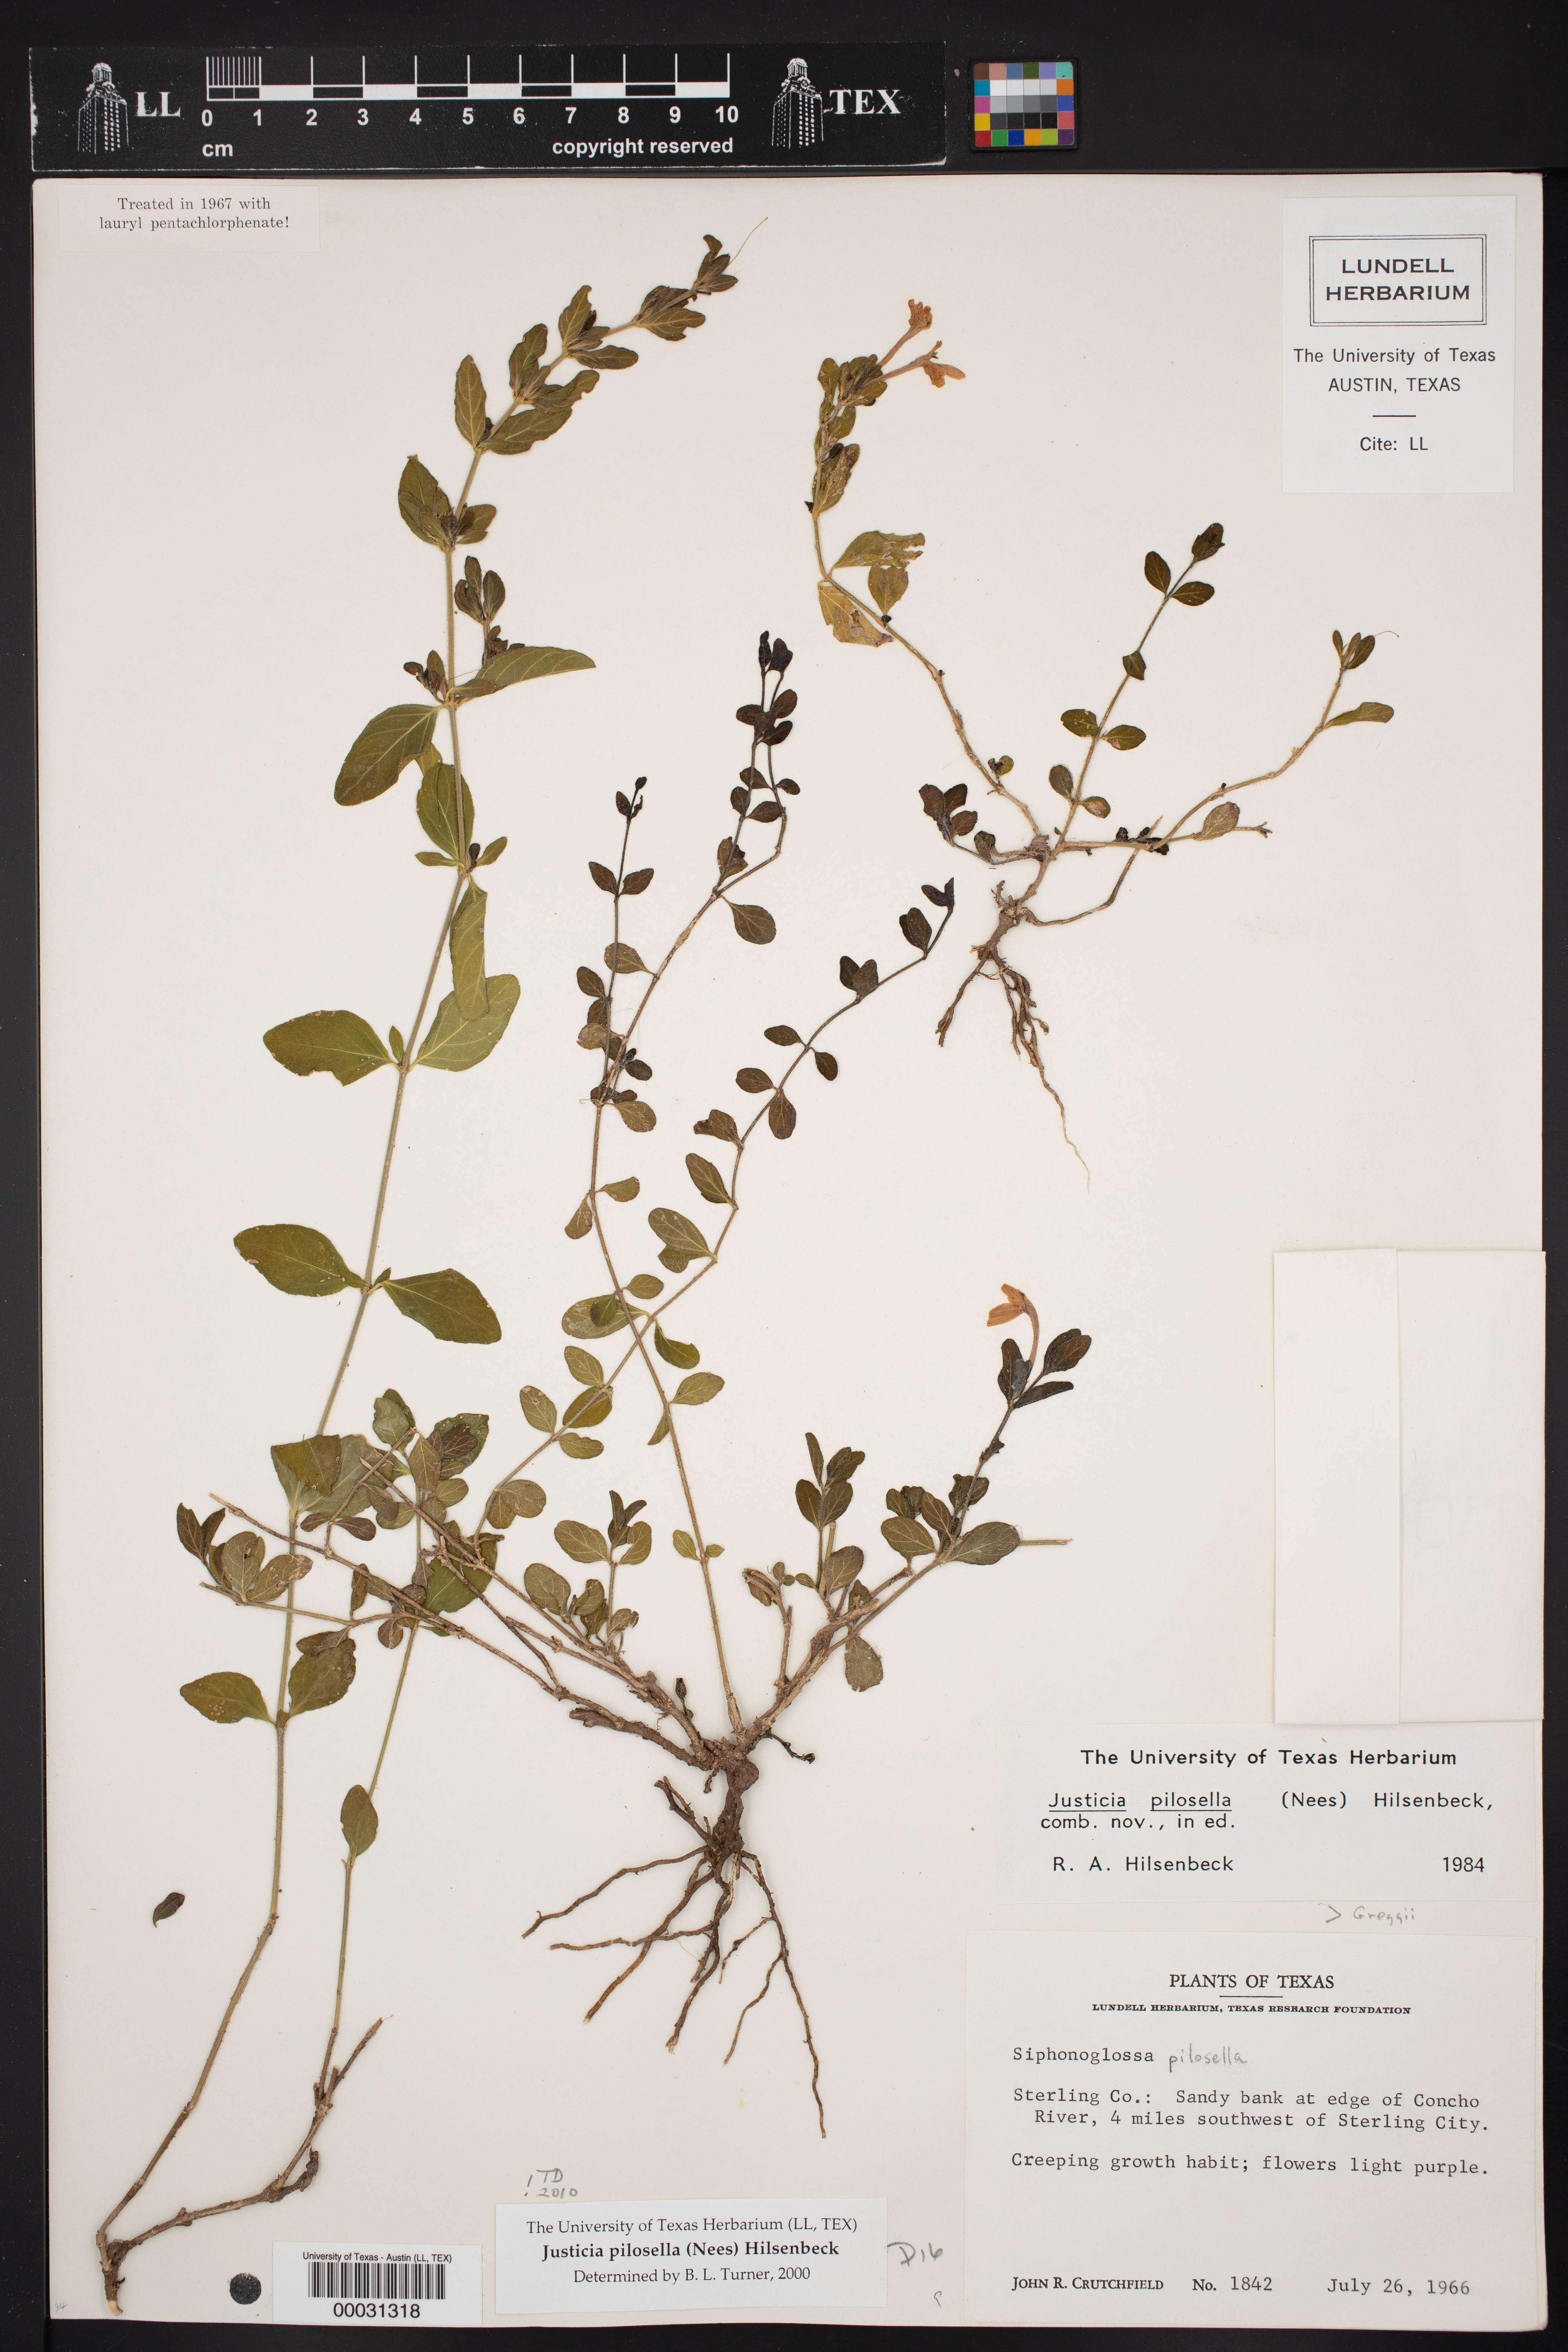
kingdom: Plantae
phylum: Tracheophyta
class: Magnoliopsida
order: Lamiales
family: Acanthaceae
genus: Justicia
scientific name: Justicia pilosella
